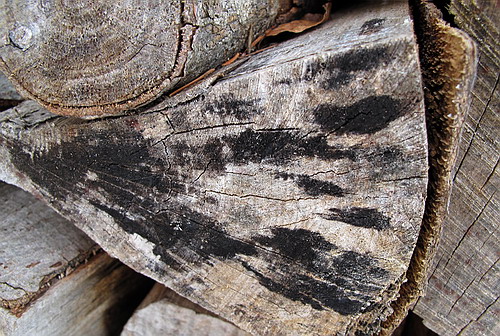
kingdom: Fungi
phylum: Ascomycota
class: Leotiomycetes
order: Helotiales
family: Helotiaceae
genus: Bispora
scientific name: Bispora pallescens
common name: måtte-snitskive
